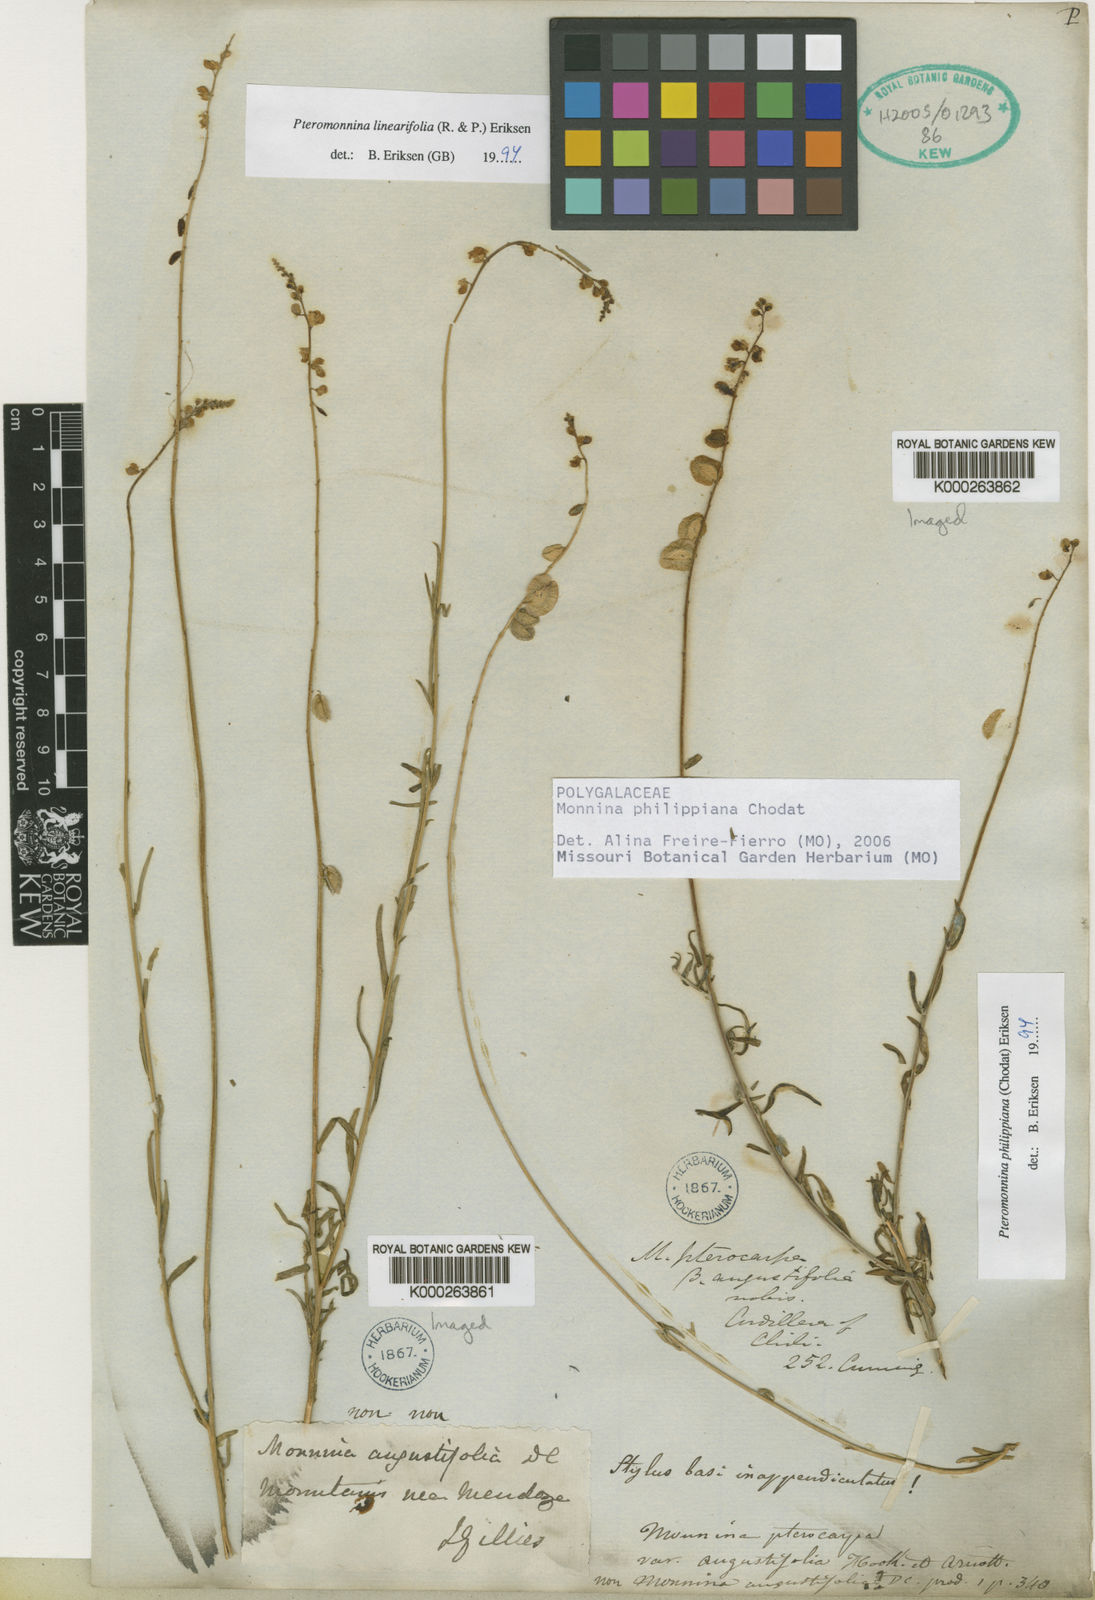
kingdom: Plantae
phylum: Tracheophyta
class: Magnoliopsida
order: Fabales
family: Polygalaceae
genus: Monnina
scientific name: Monnina
